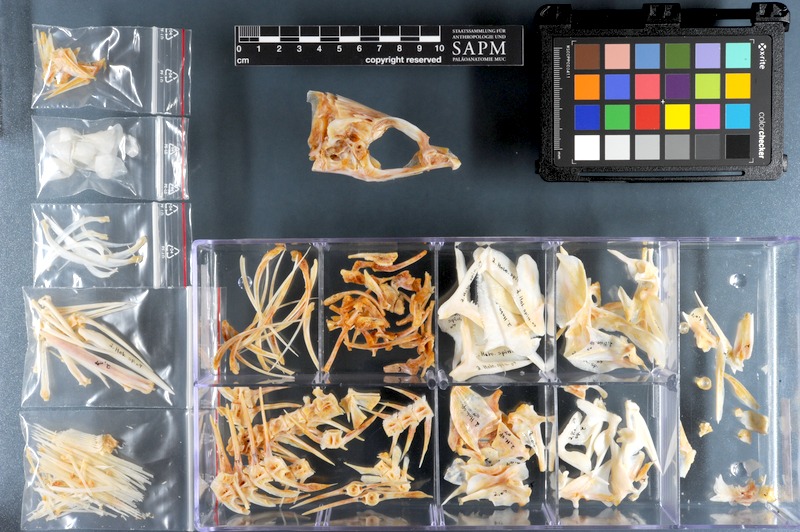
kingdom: Animalia
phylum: Chordata
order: Beryciformes
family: Holocentridae
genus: Sargocentron
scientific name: Sargocentron spiniferum
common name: Giant squirrelfish
